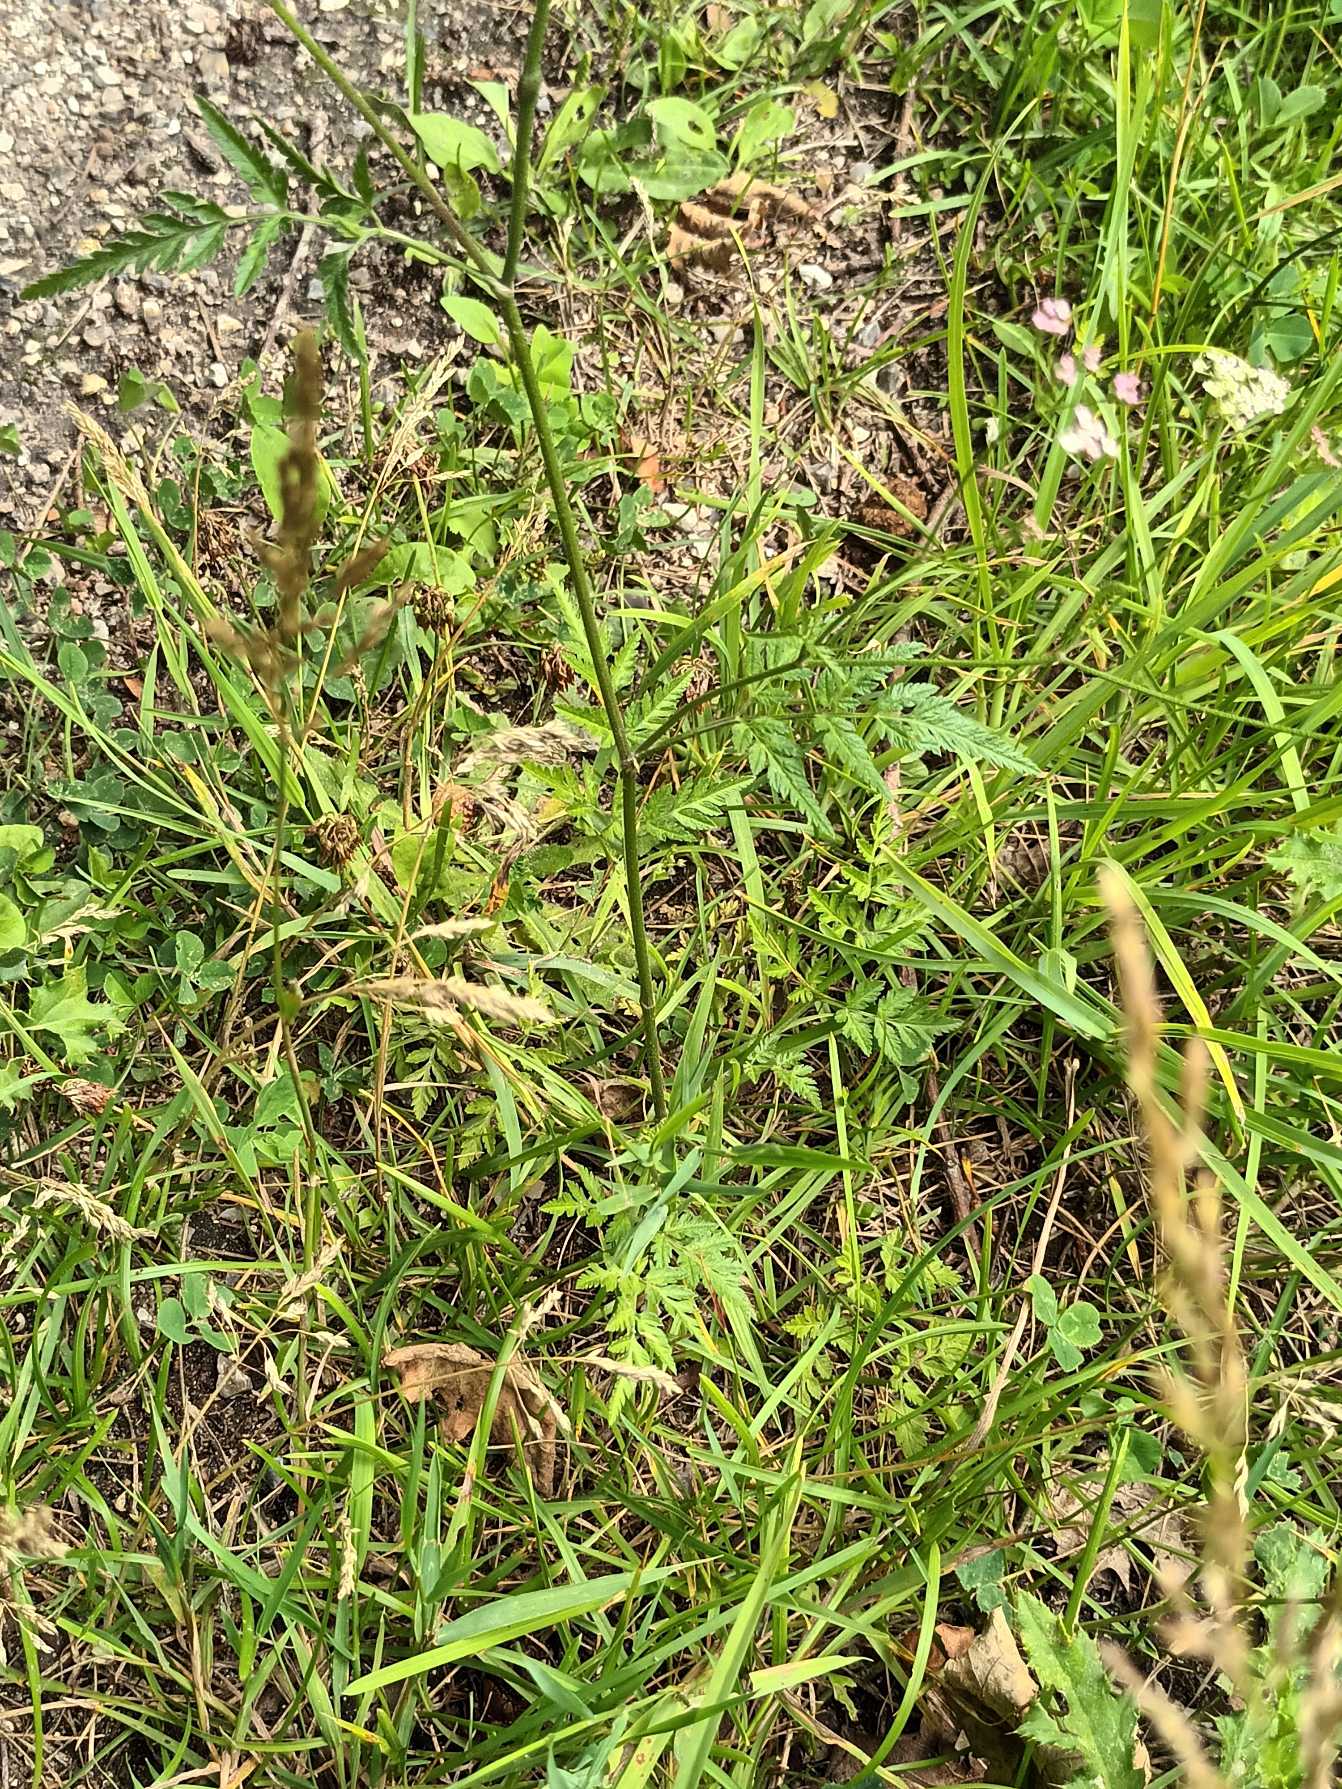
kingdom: Plantae
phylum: Tracheophyta
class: Magnoliopsida
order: Apiales
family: Apiaceae
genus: Torilis
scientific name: Torilis japonica
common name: Hvas randfrø
